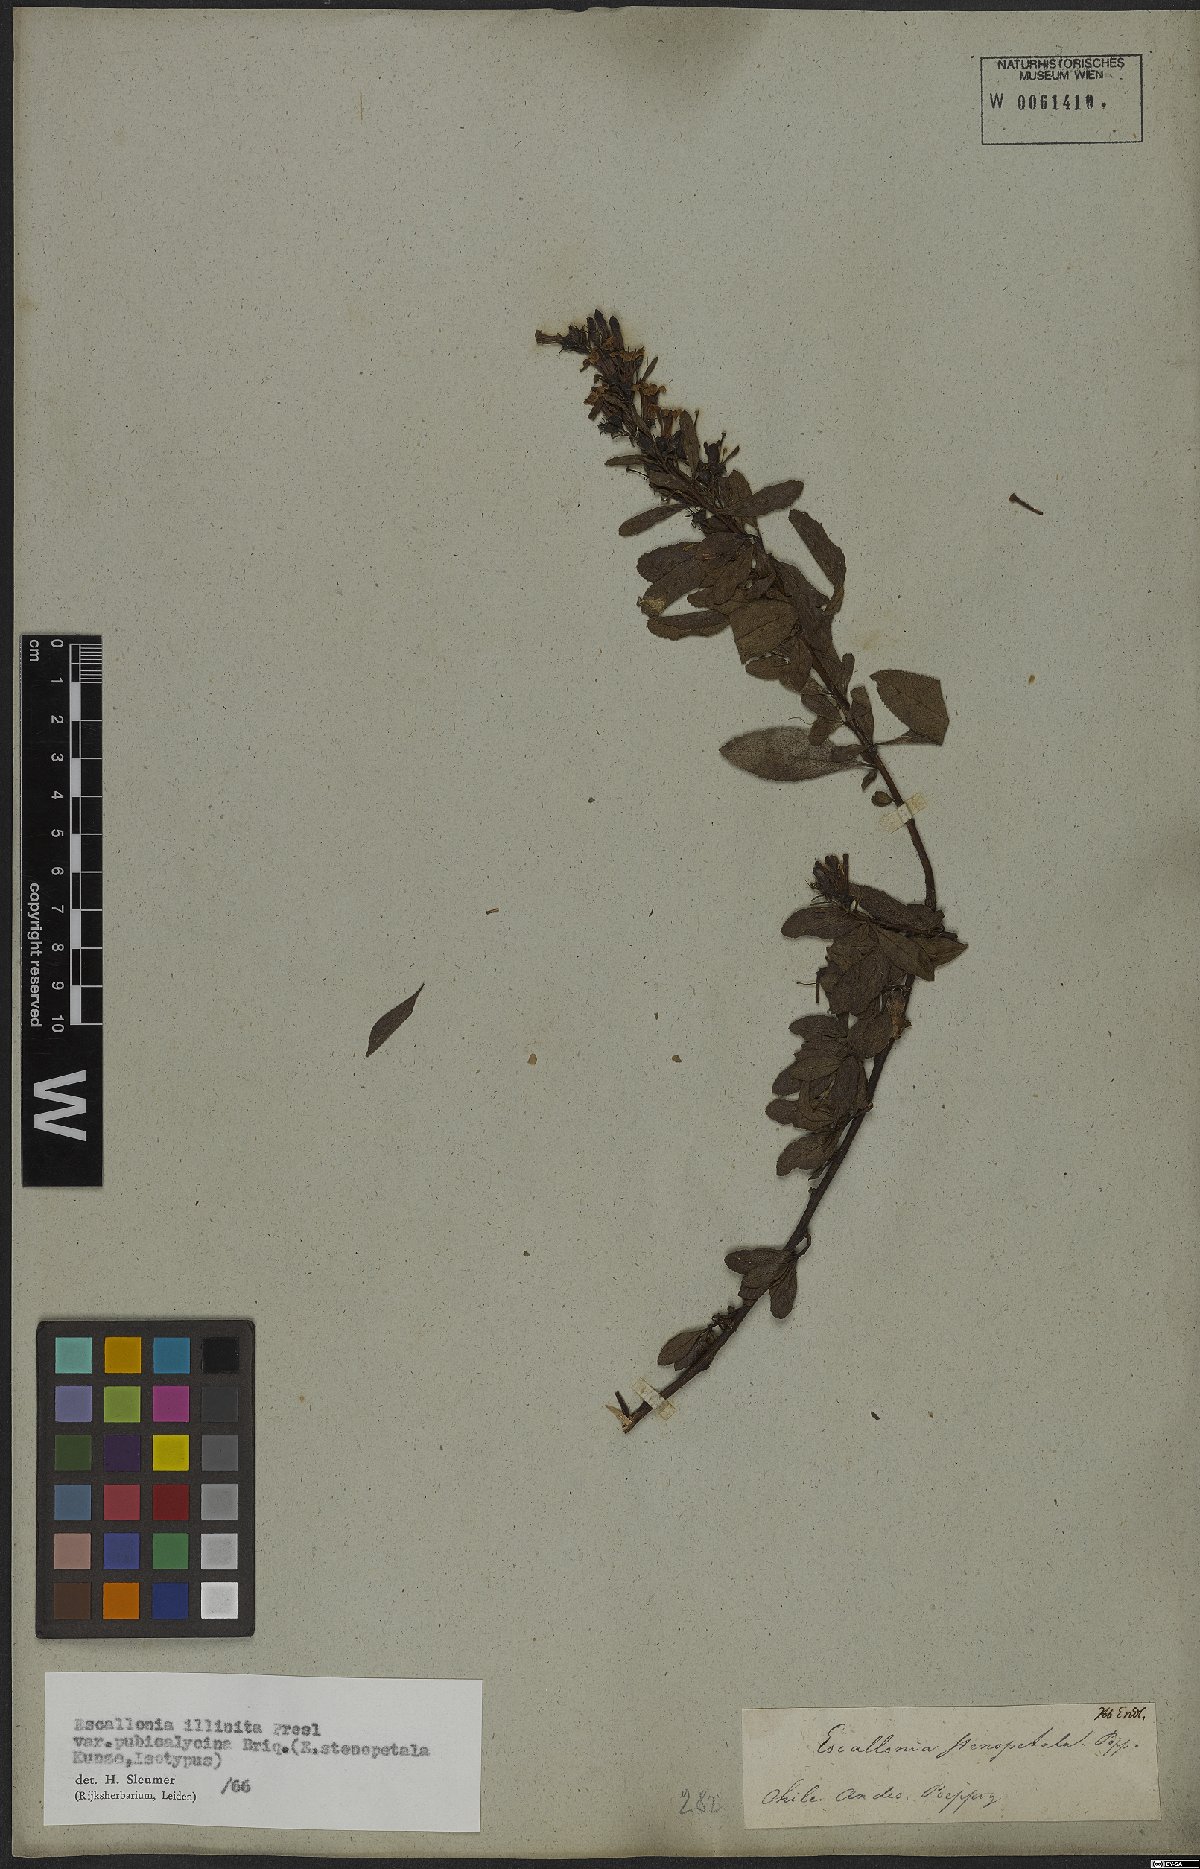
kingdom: Plantae
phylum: Tracheophyta
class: Magnoliopsida
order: Escalloniales
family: Escalloniaceae
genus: Escallonia
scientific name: Escallonia illinita
